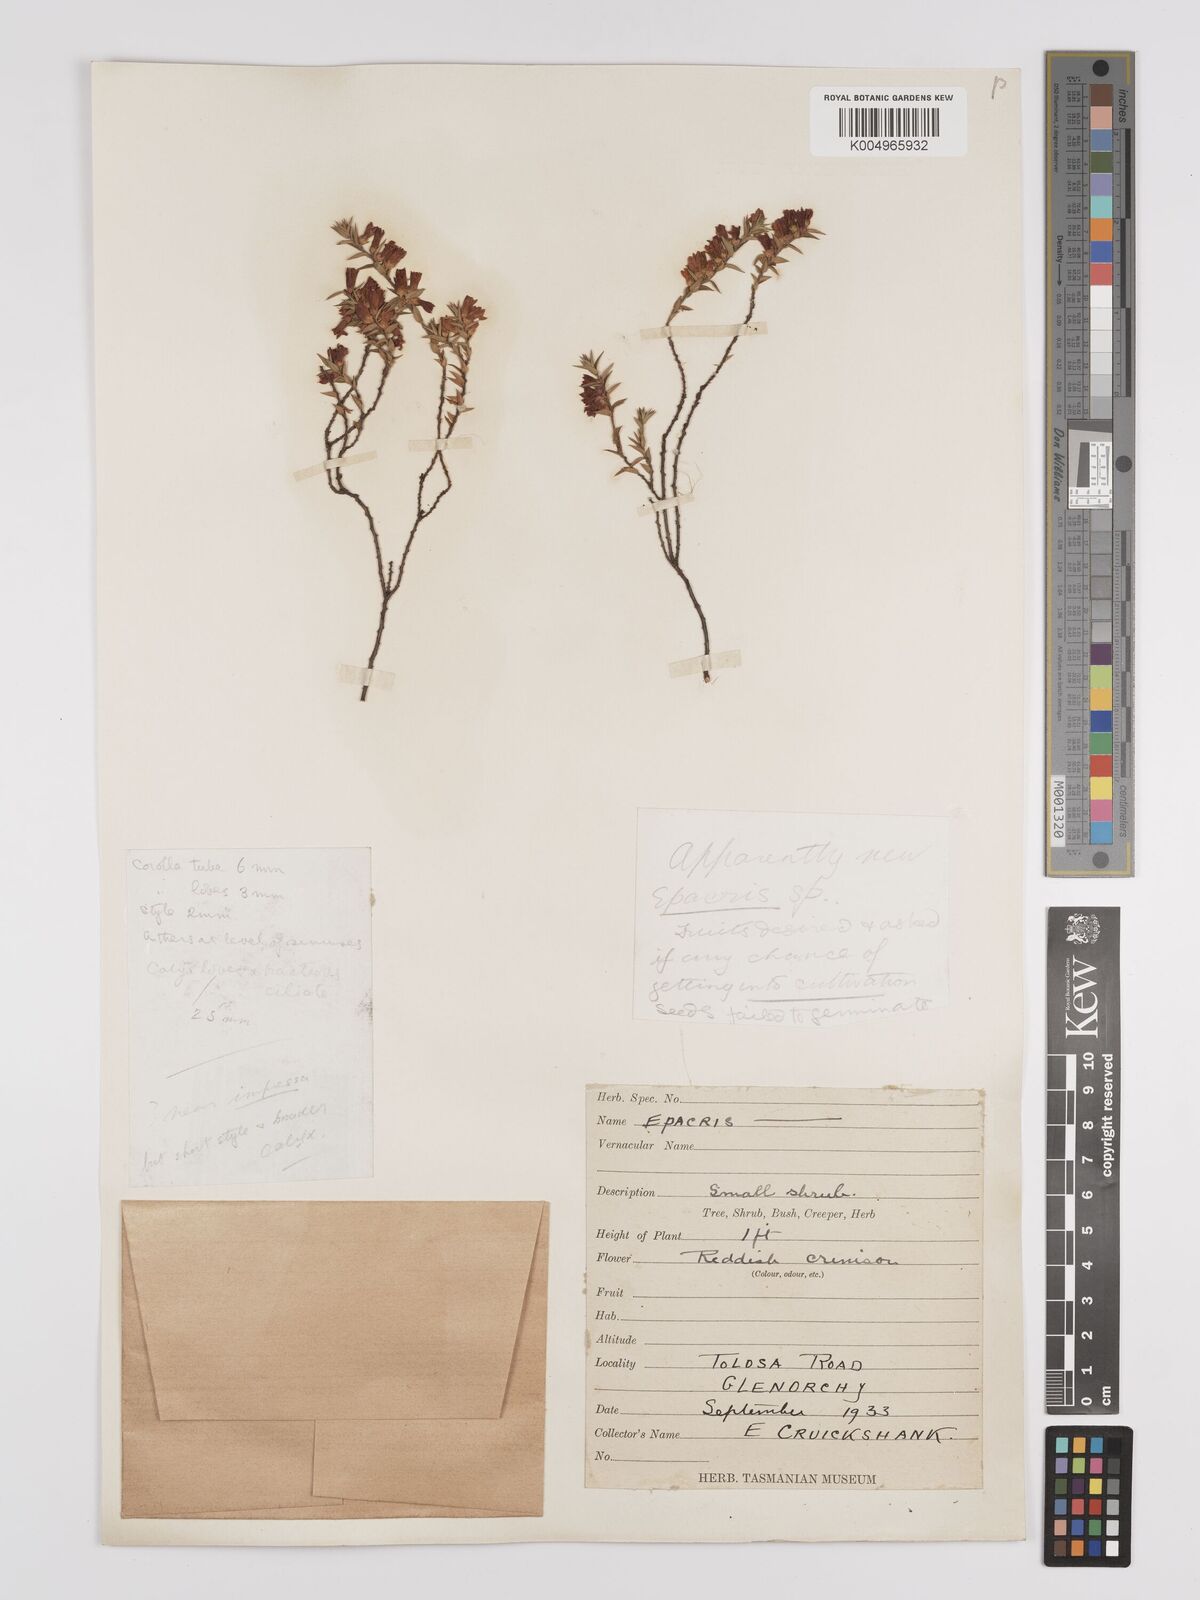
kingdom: Plantae
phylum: Tracheophyta
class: Magnoliopsida
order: Ericales
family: Ericaceae
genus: Epacris
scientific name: Epacris
